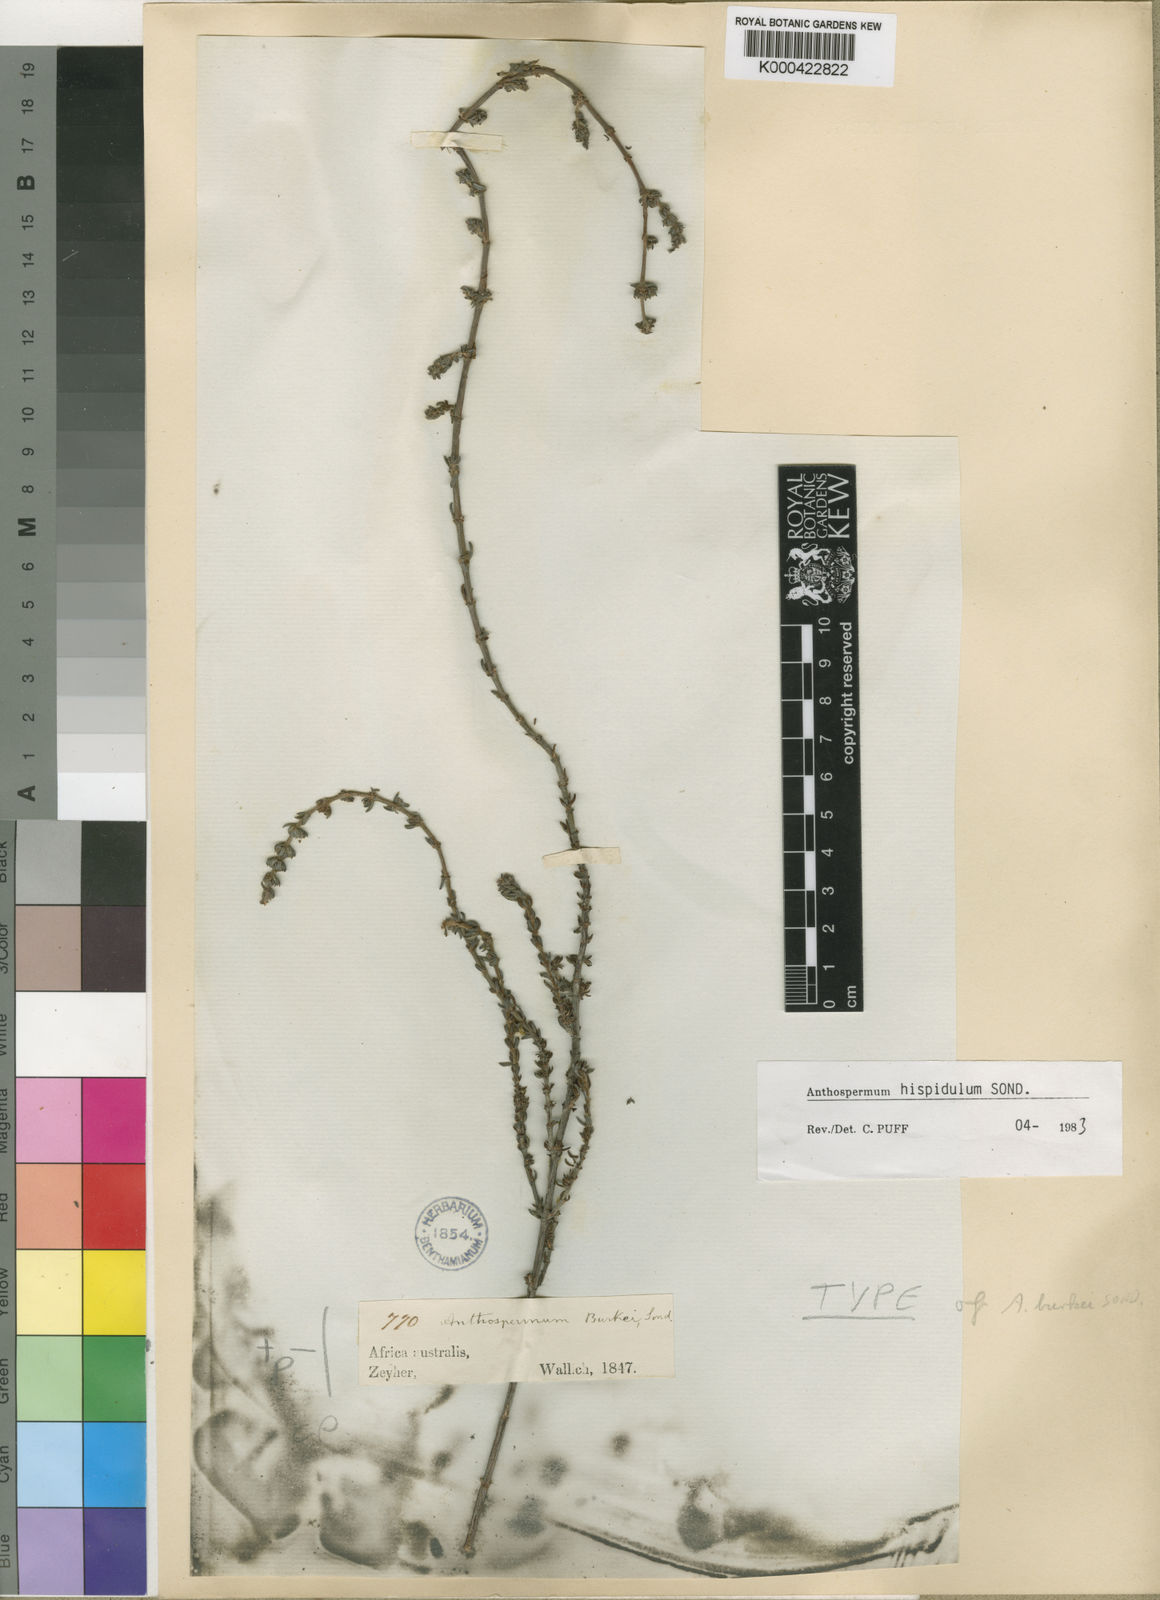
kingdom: Plantae
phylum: Tracheophyta
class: Magnoliopsida
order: Gentianales
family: Rubiaceae
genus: Anthospermum
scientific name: Anthospermum hispidulum
